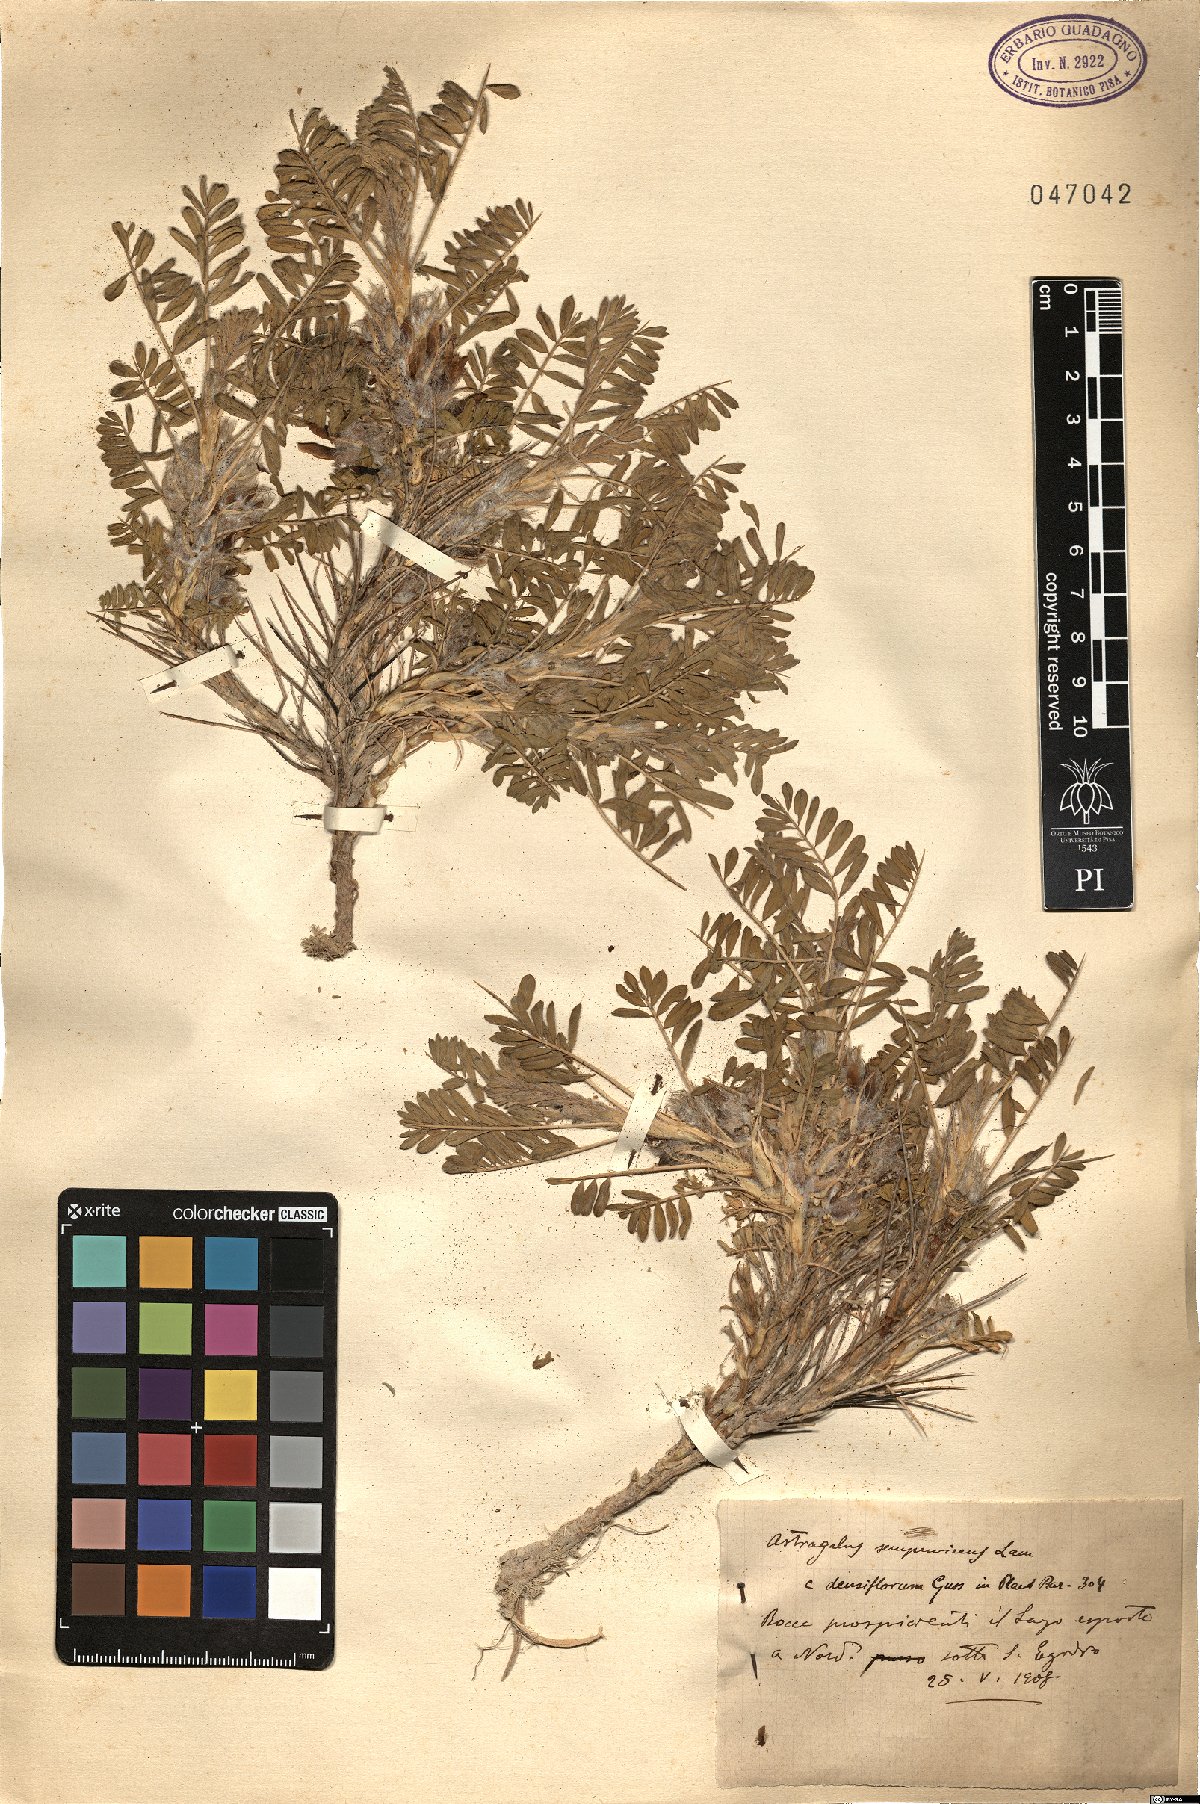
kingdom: Plantae
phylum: Tracheophyta
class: Magnoliopsida
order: Fabales
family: Fabaceae
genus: Astragalus
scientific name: Astragalus sempervirens
